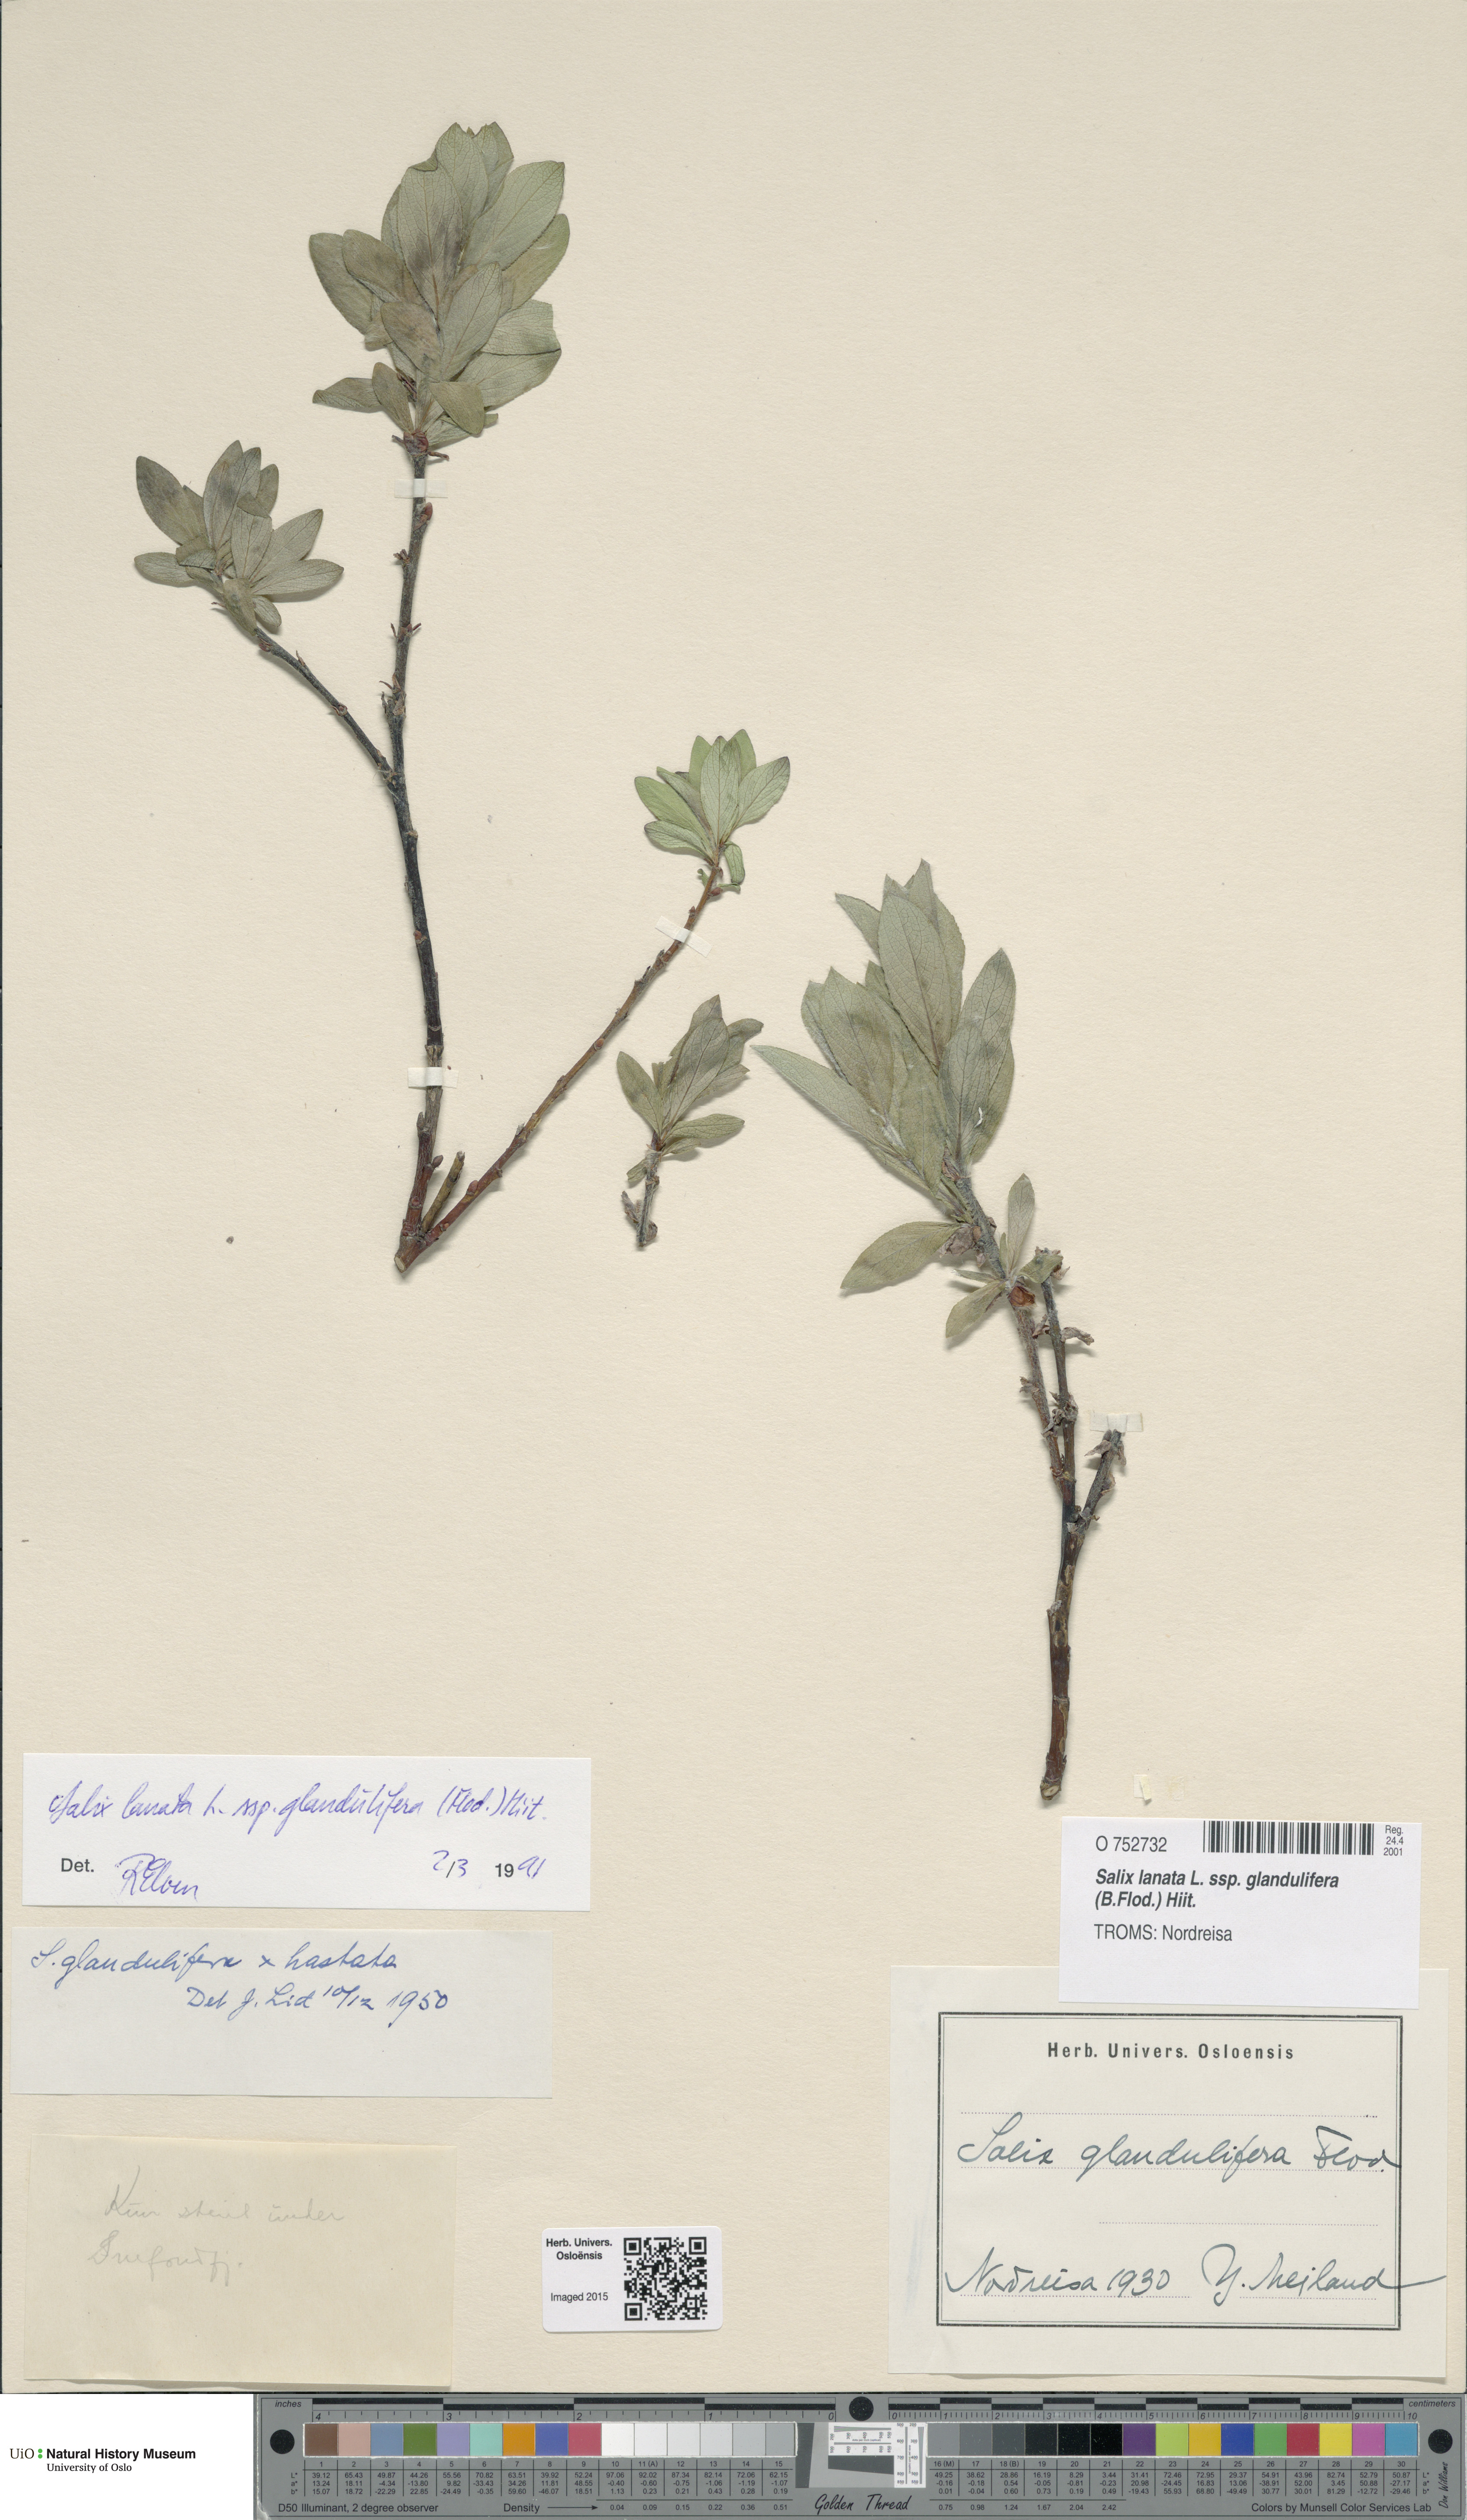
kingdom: Plantae
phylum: Tracheophyta
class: Magnoliopsida
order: Malpighiales
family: Salicaceae
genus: Salix
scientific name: Salix lanata
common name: Woolly willow
